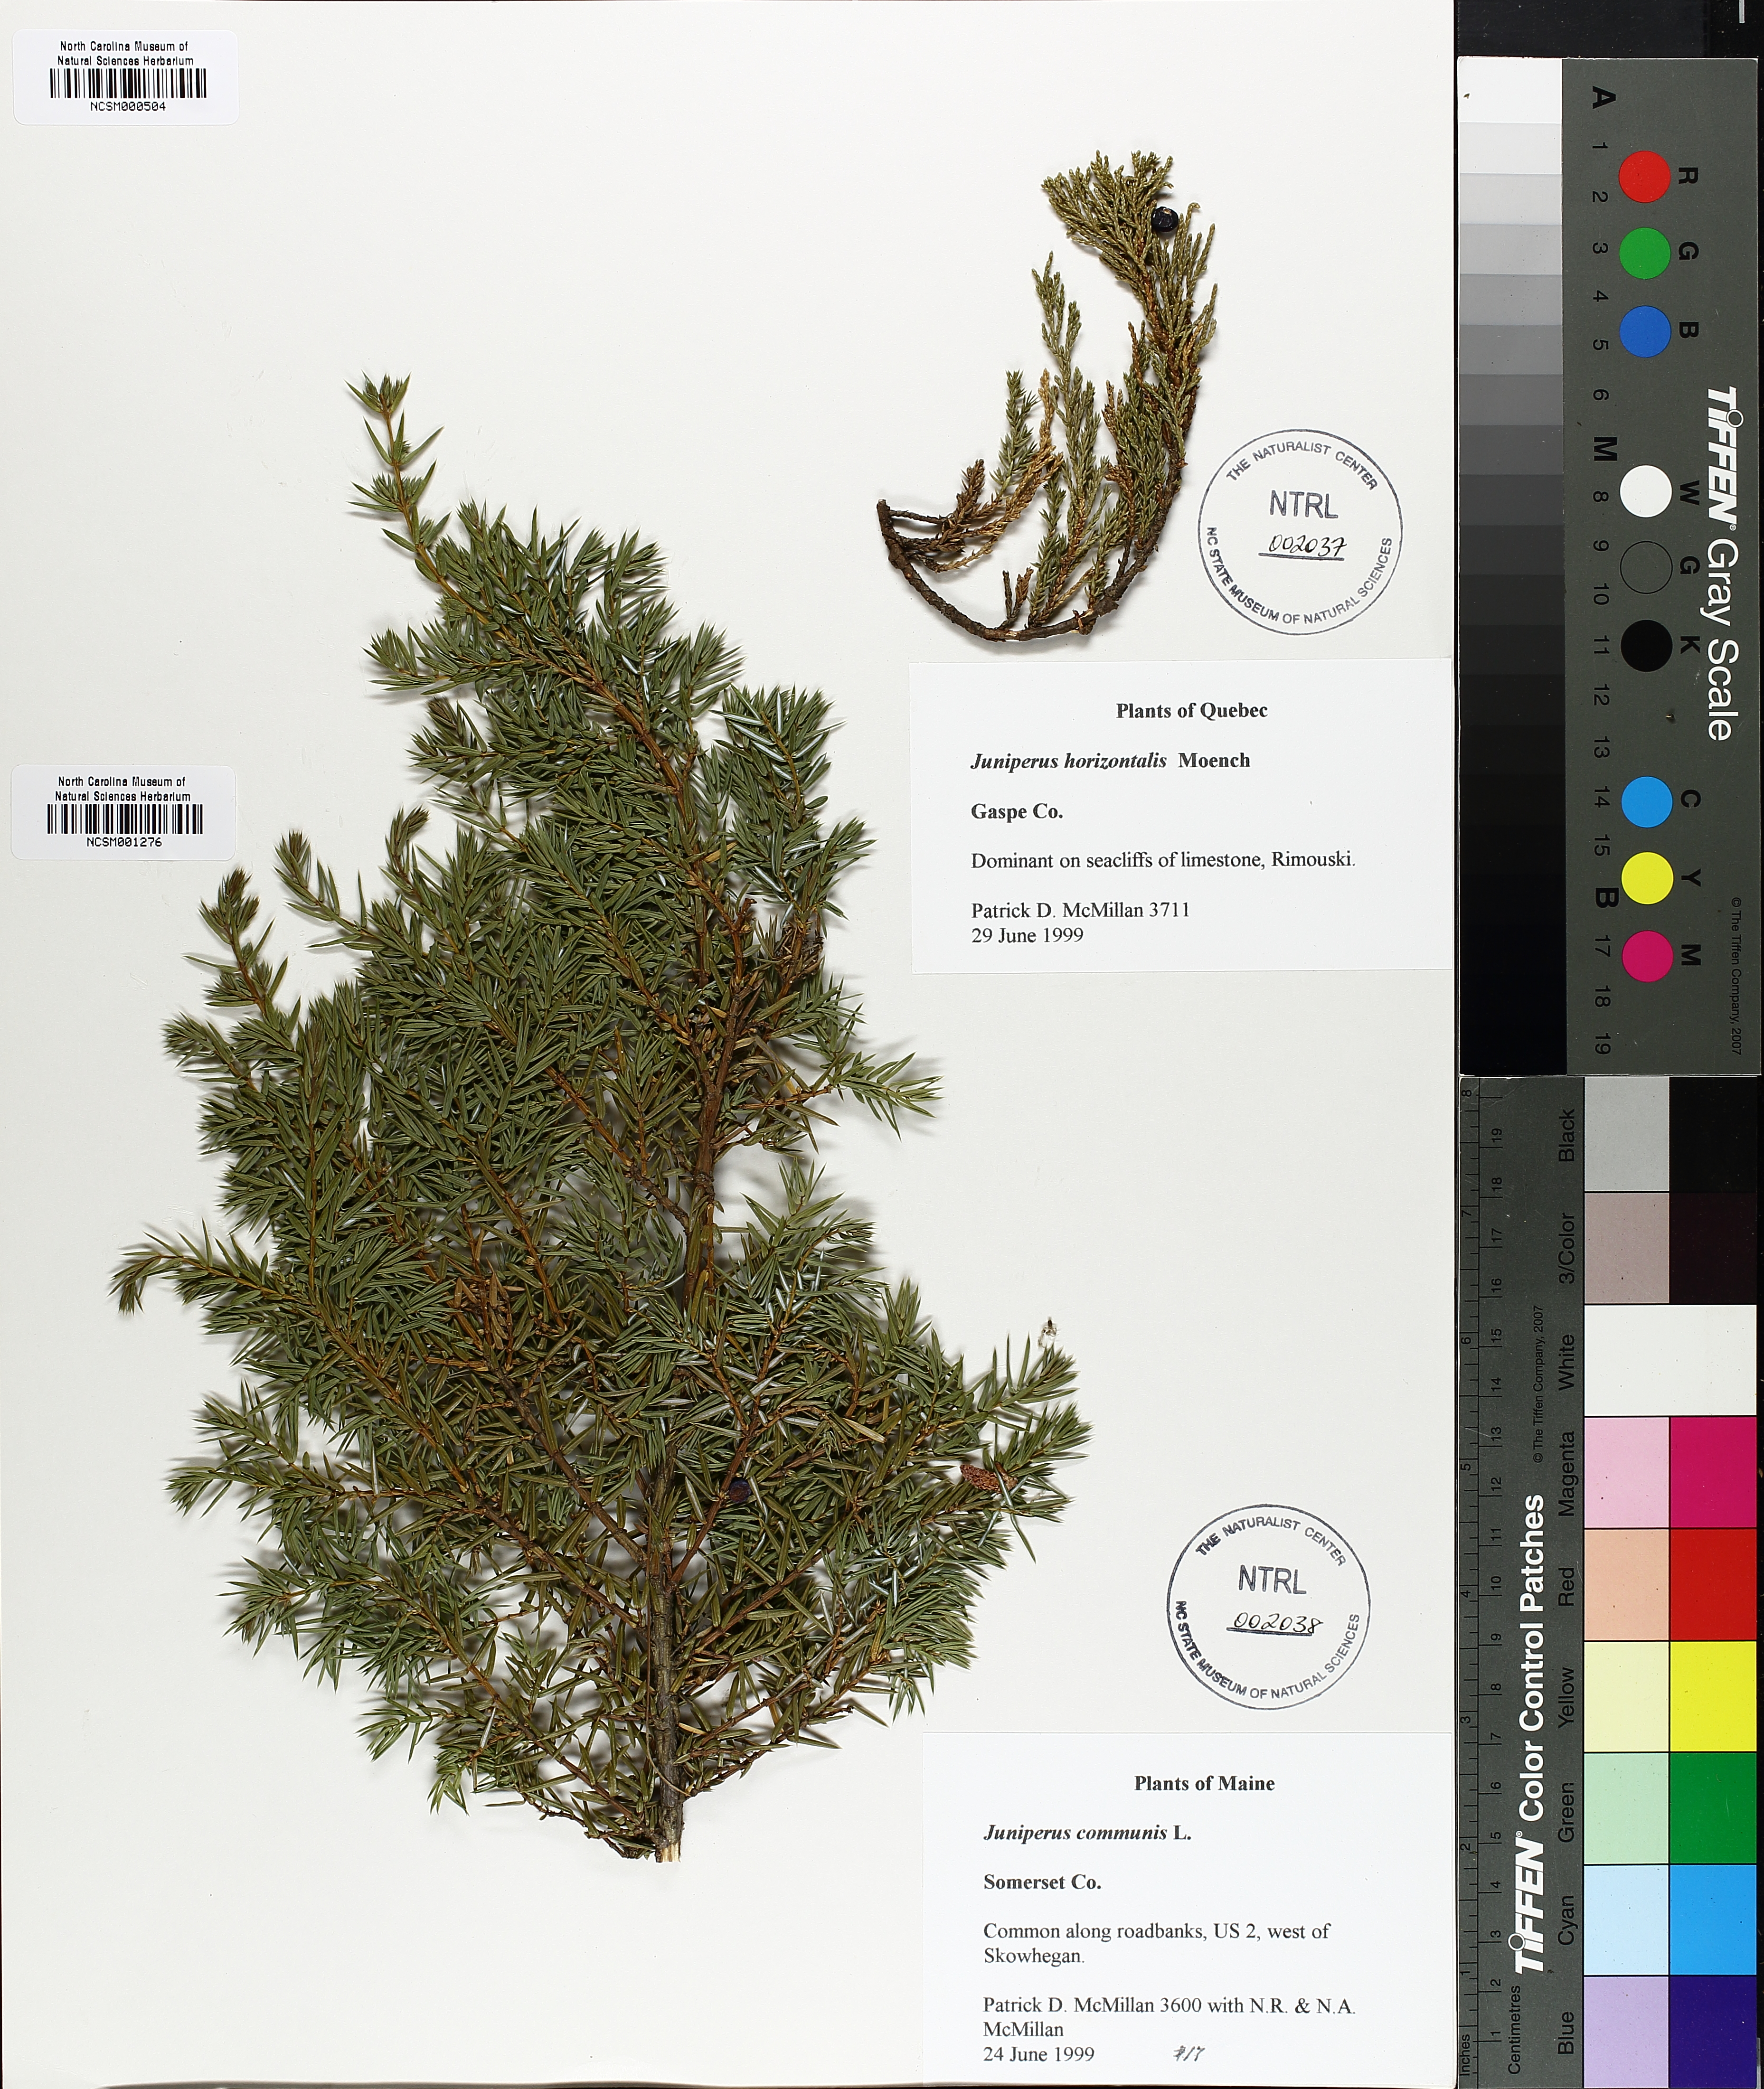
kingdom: Plantae
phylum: Tracheophyta
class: Pinopsida
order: Pinales
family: Cupressaceae
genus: Juniperus
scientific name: Juniperus communis
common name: Common juniper
